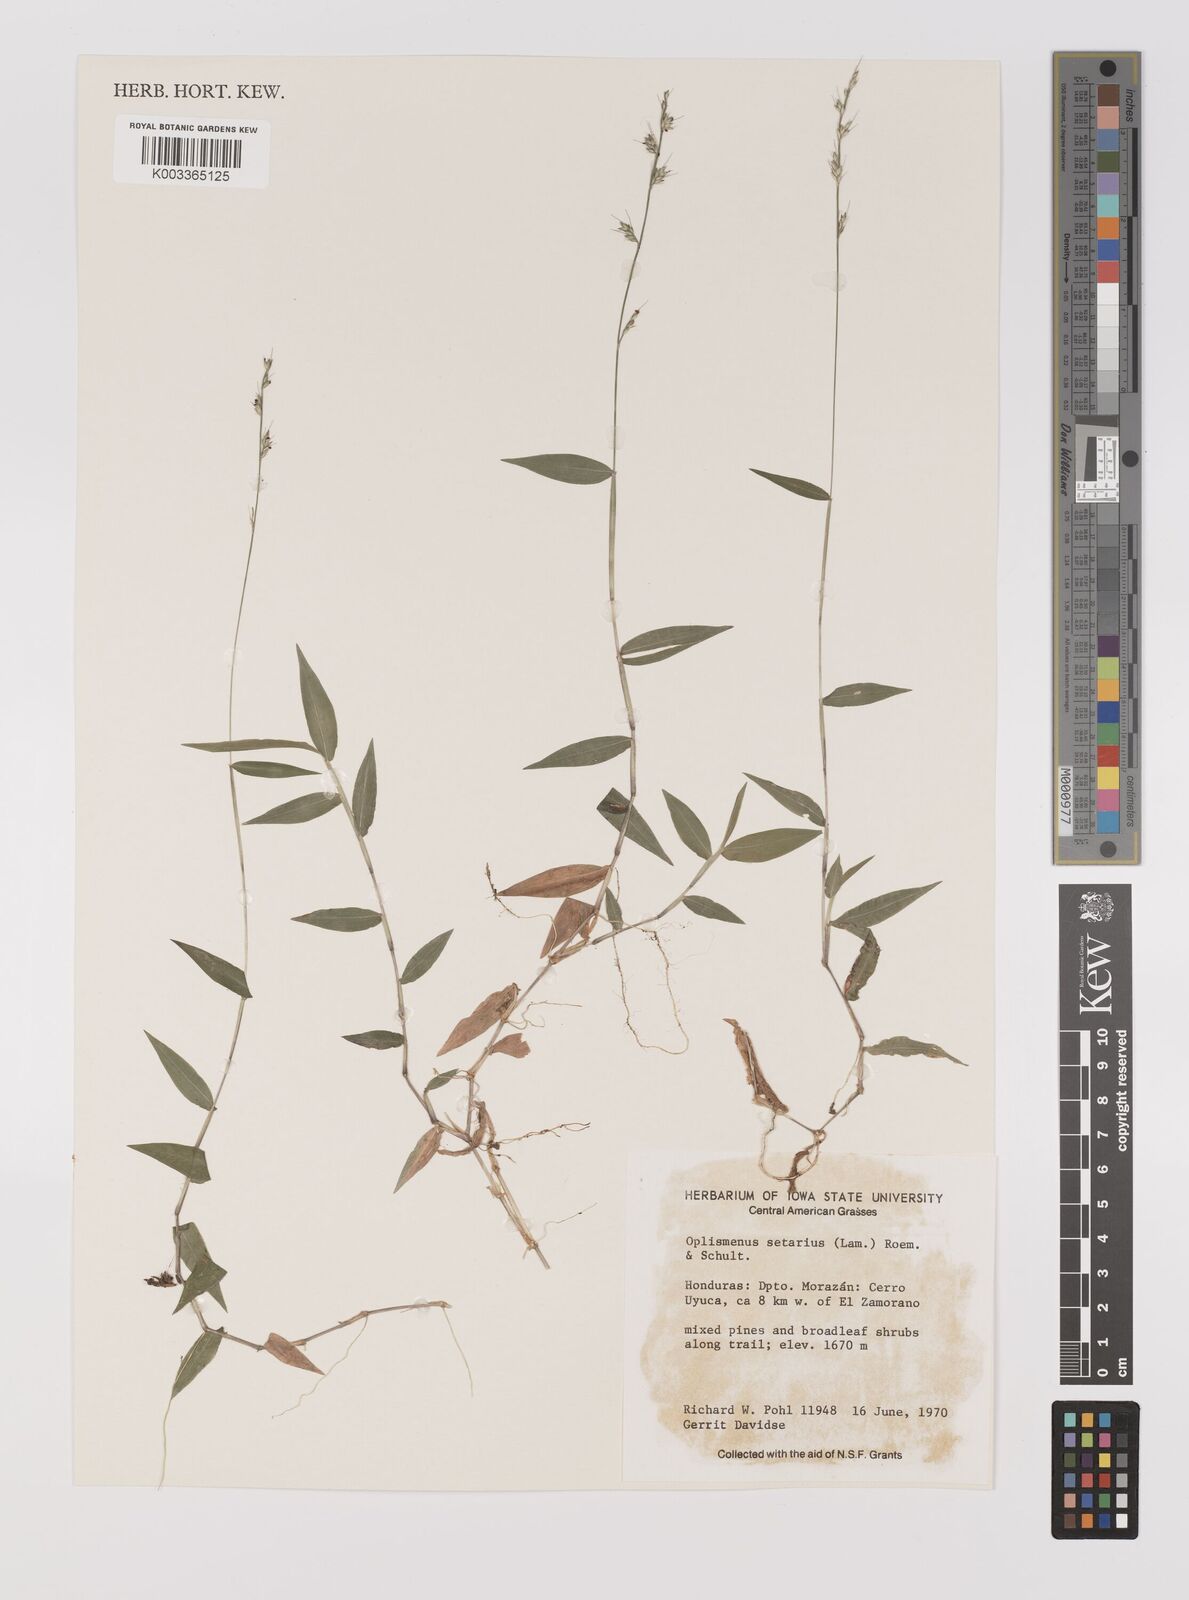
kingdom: Plantae
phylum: Tracheophyta
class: Liliopsida
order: Poales
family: Poaceae
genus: Oplismenus
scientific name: Oplismenus hirtellus
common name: Basketgrass
